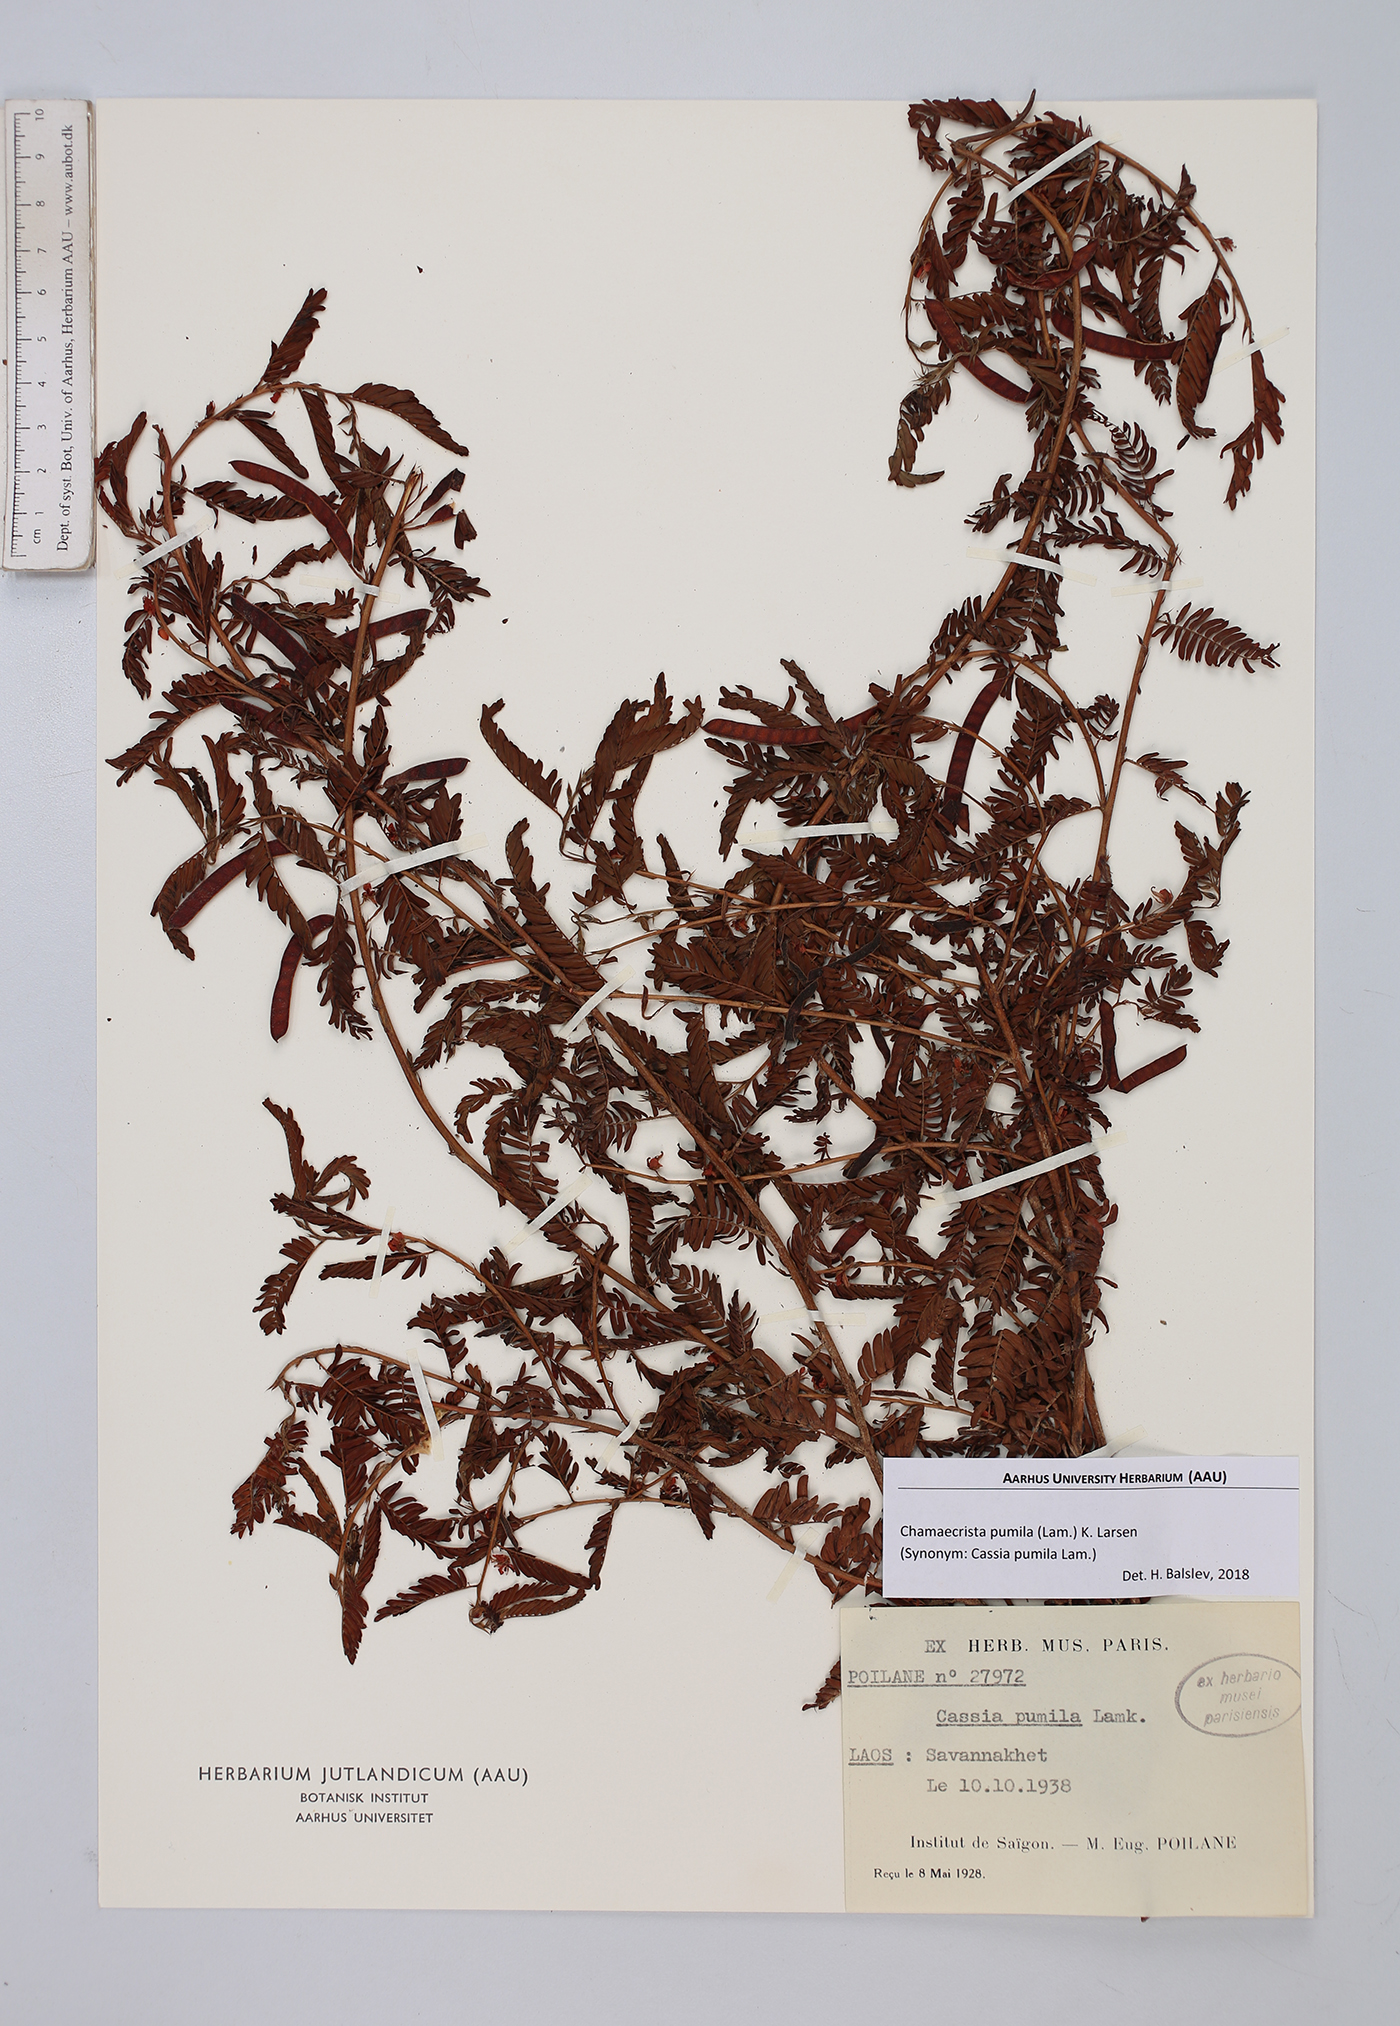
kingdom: Plantae
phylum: Tracheophyta
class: Magnoliopsida
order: Fabales
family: Fabaceae
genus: Chamaecrista
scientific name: Chamaecrista pumila
